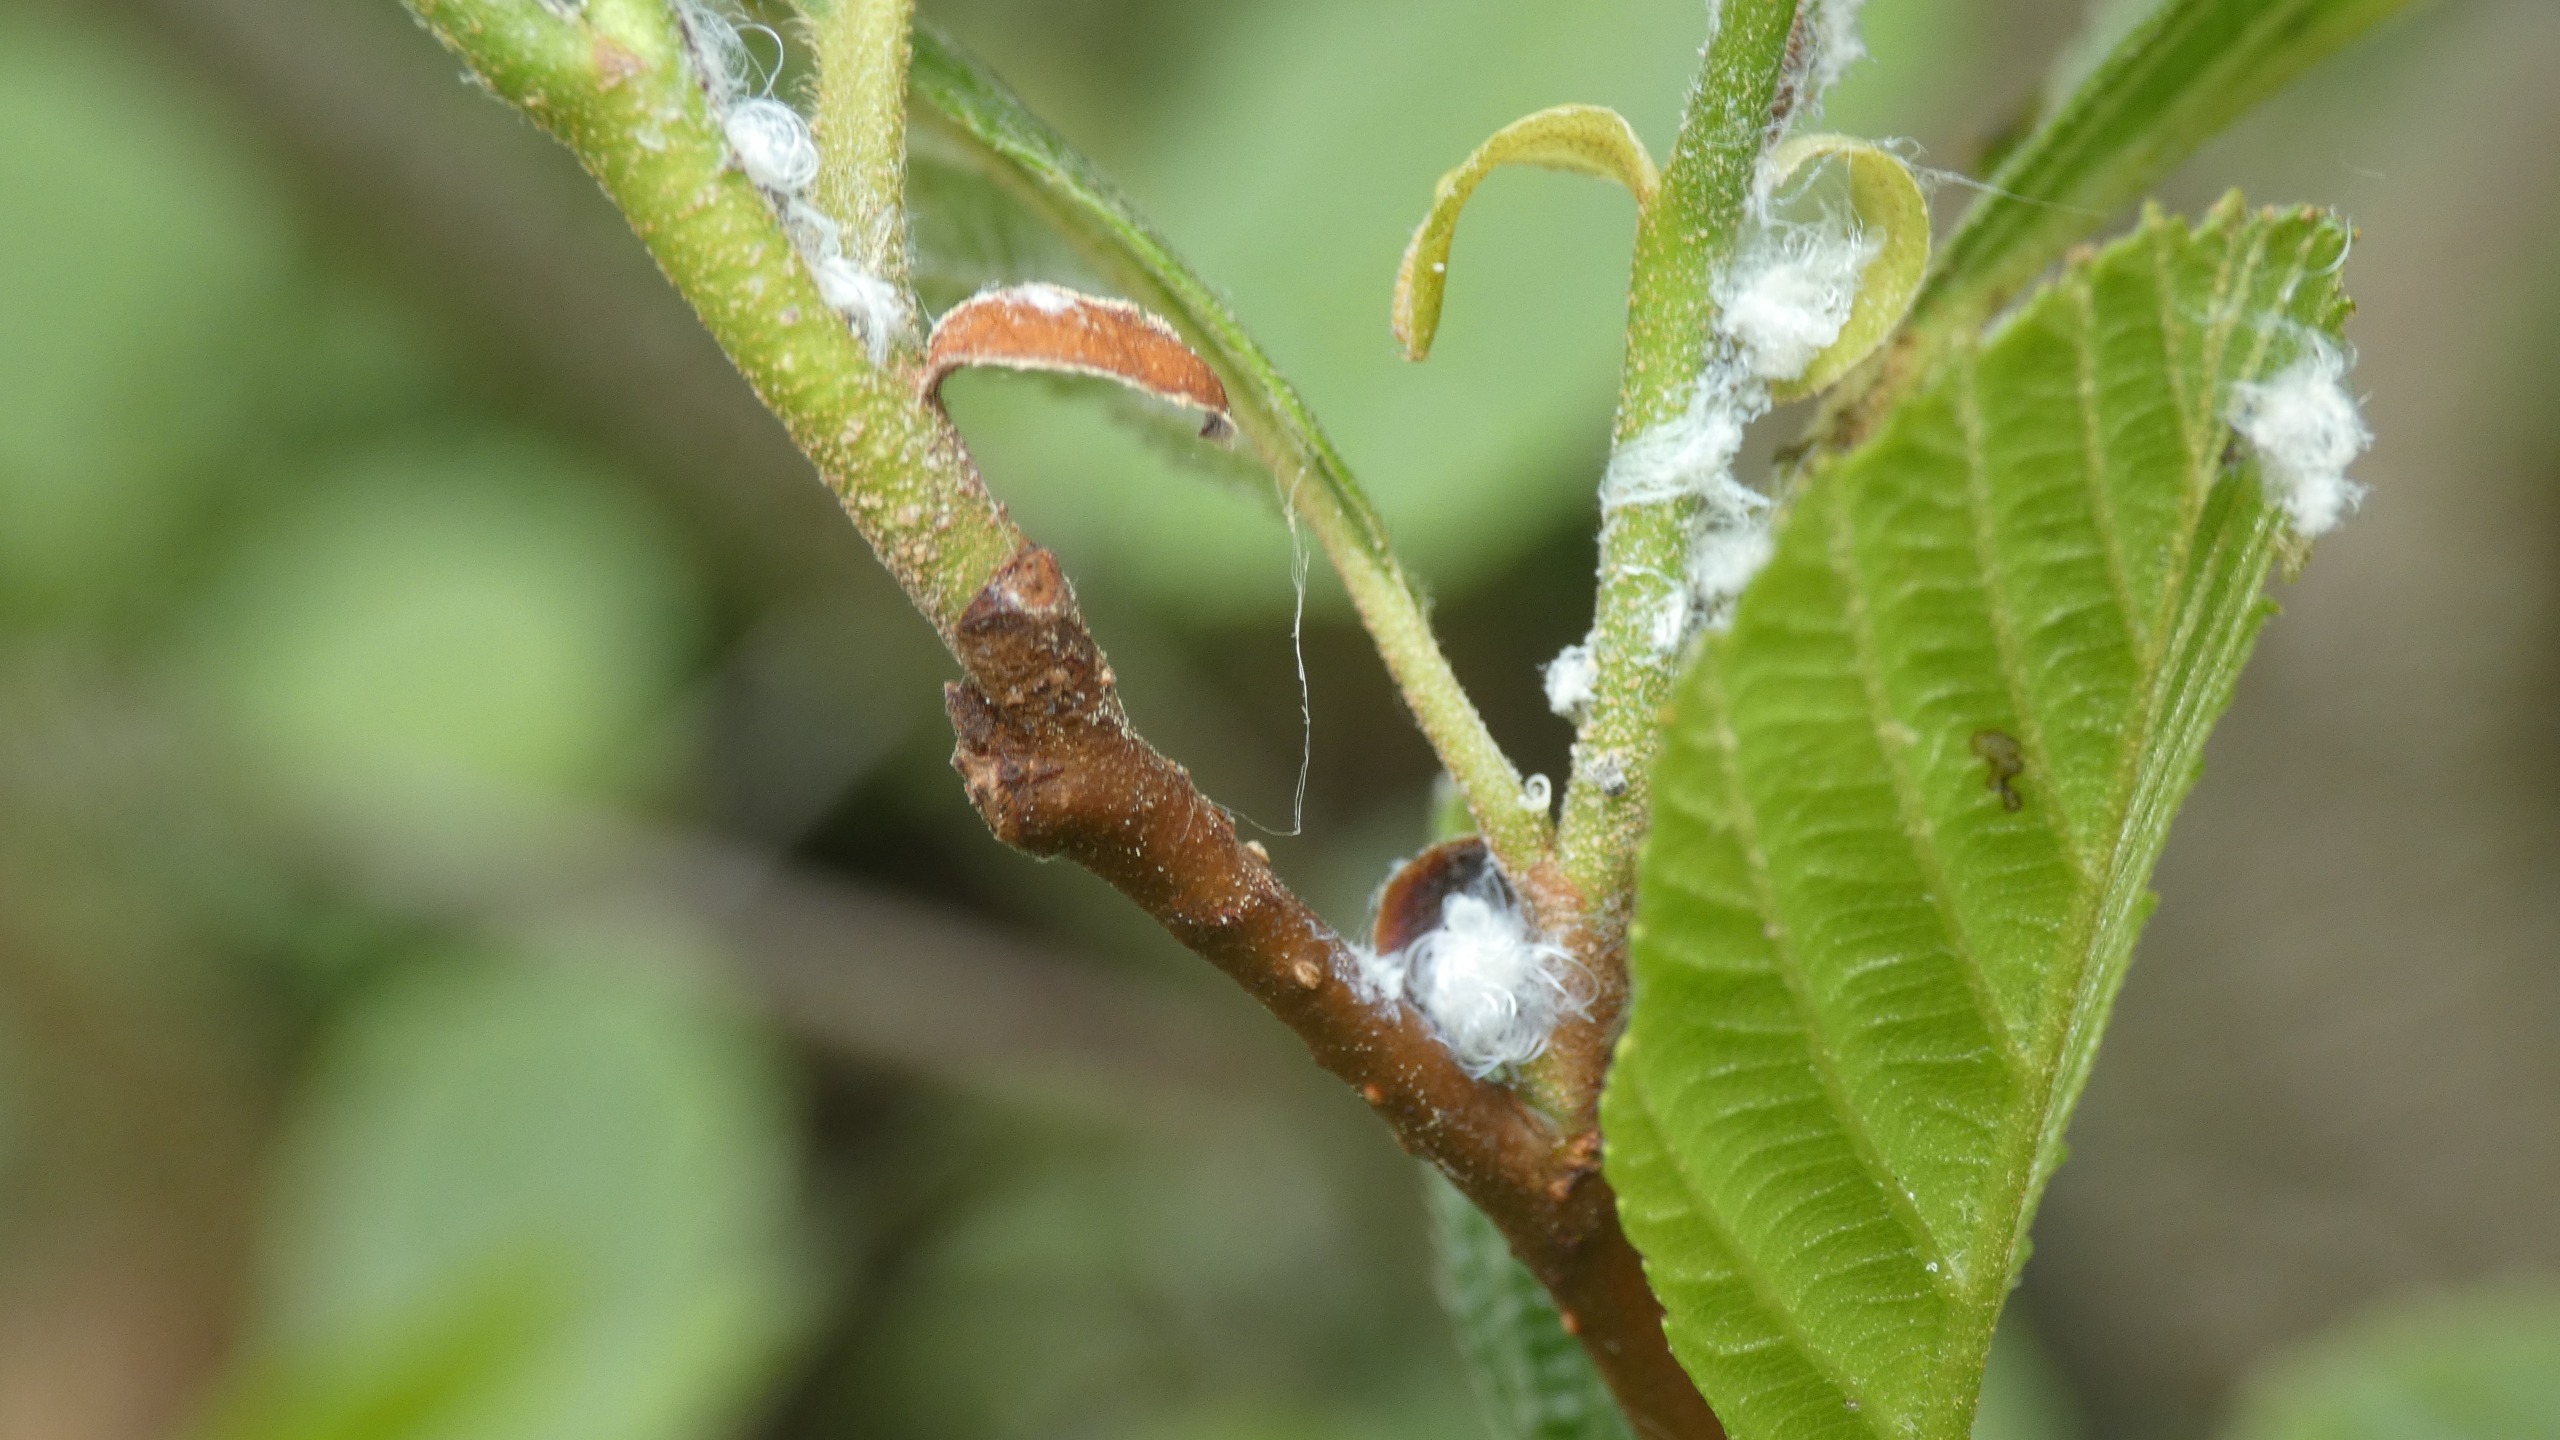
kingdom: Plantae
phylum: Tracheophyta
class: Magnoliopsida
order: Fagales
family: Betulaceae
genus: Alnus
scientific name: Alnus glutinosa
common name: Rød-el
